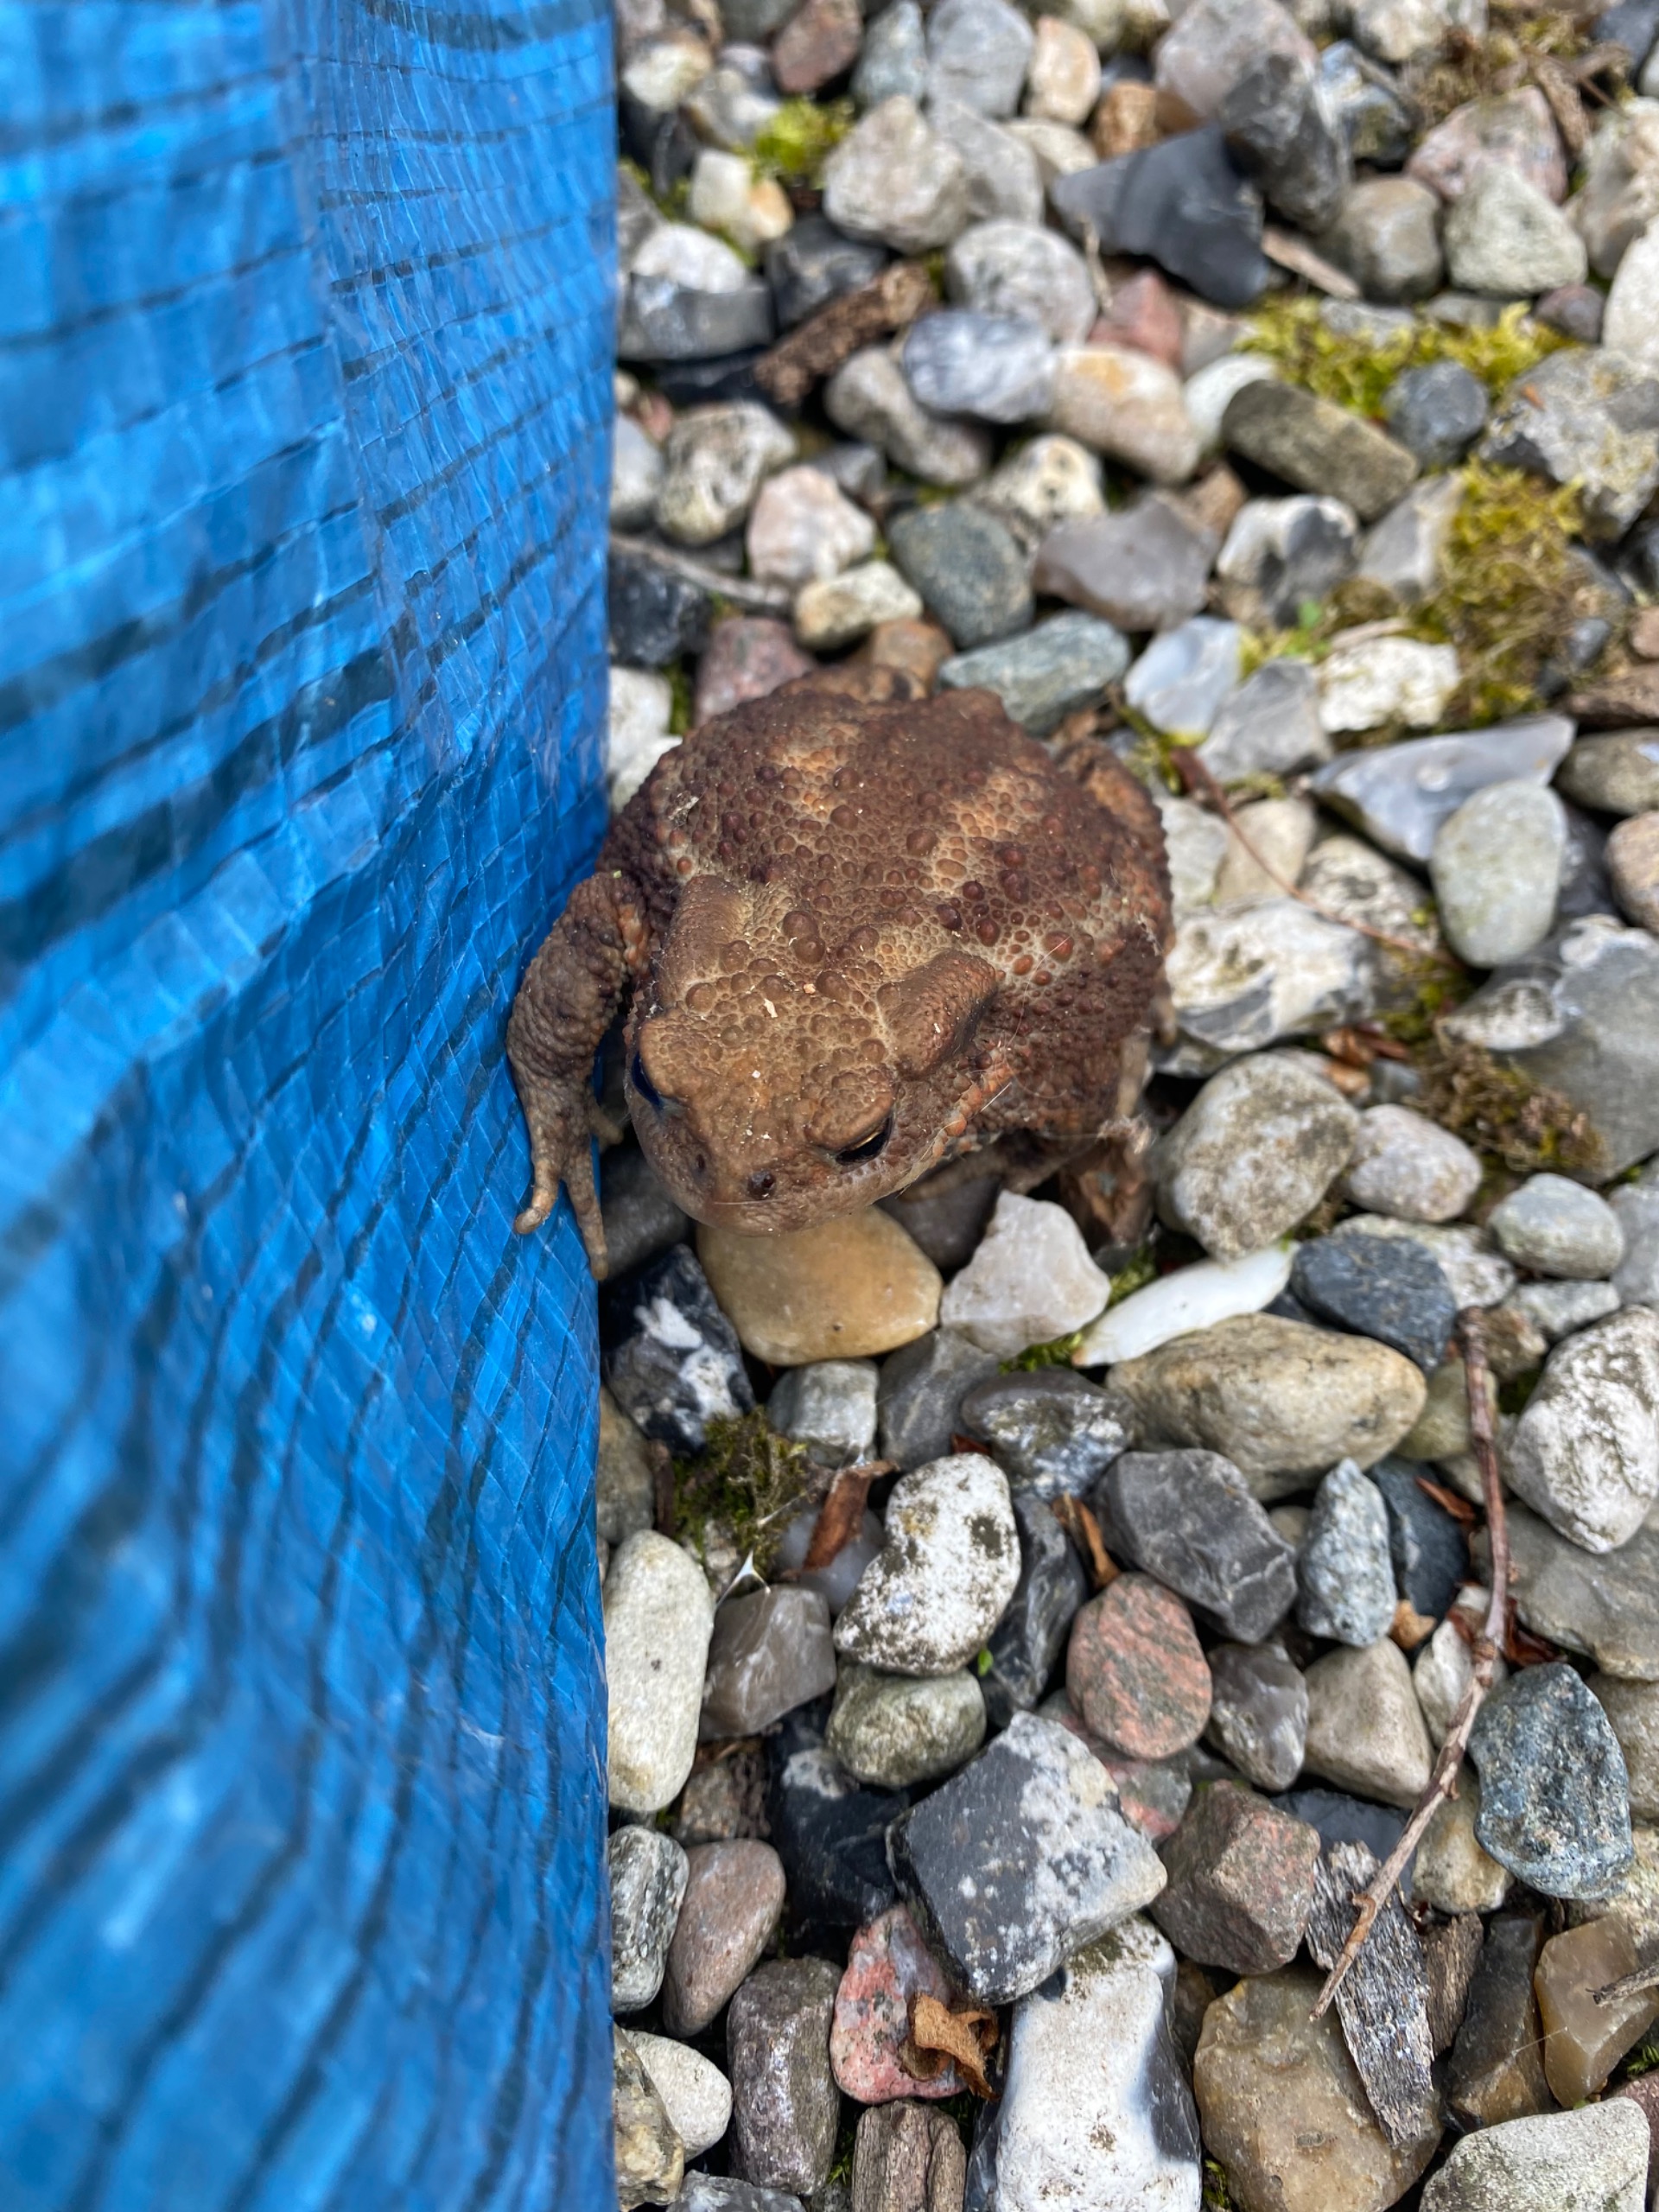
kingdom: Animalia
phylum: Chordata
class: Amphibia
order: Anura
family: Bufonidae
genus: Bufo
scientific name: Bufo bufo
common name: Skrubtudse
